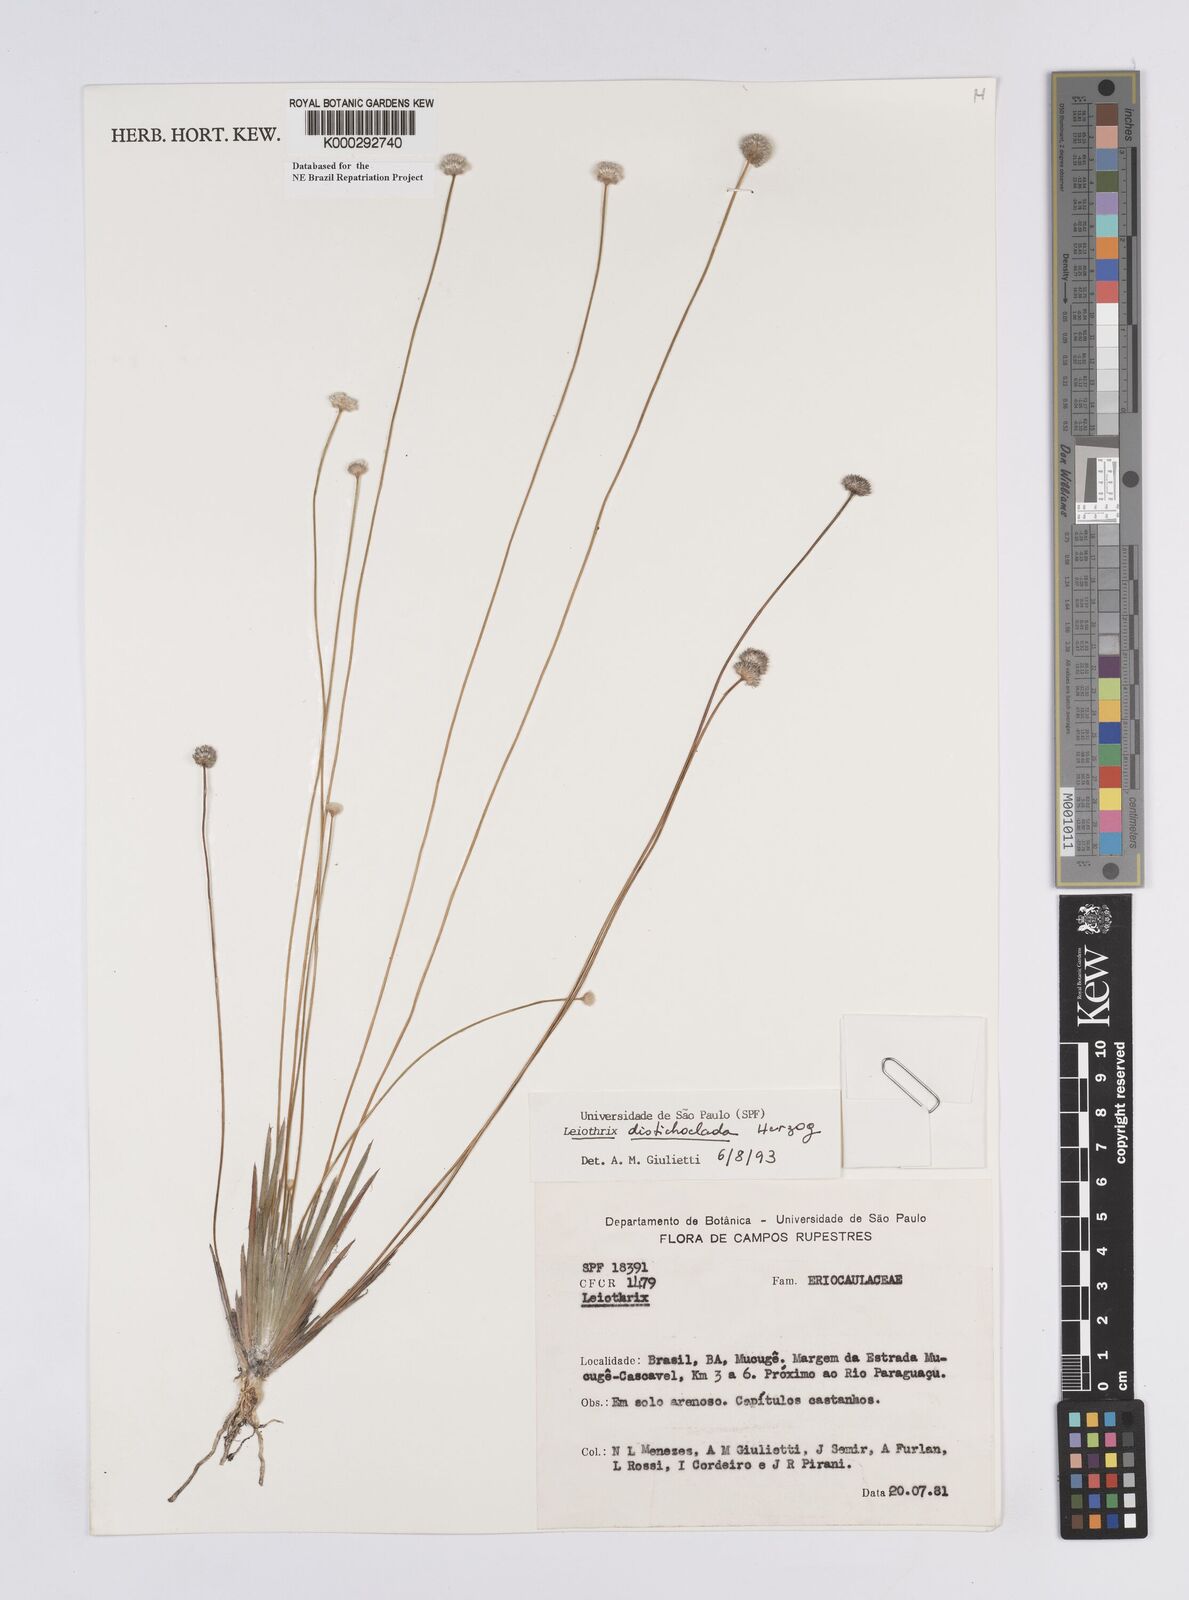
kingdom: Plantae
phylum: Tracheophyta
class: Liliopsida
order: Poales
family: Eriocaulaceae
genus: Leiothrix
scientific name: Leiothrix distichoclada
